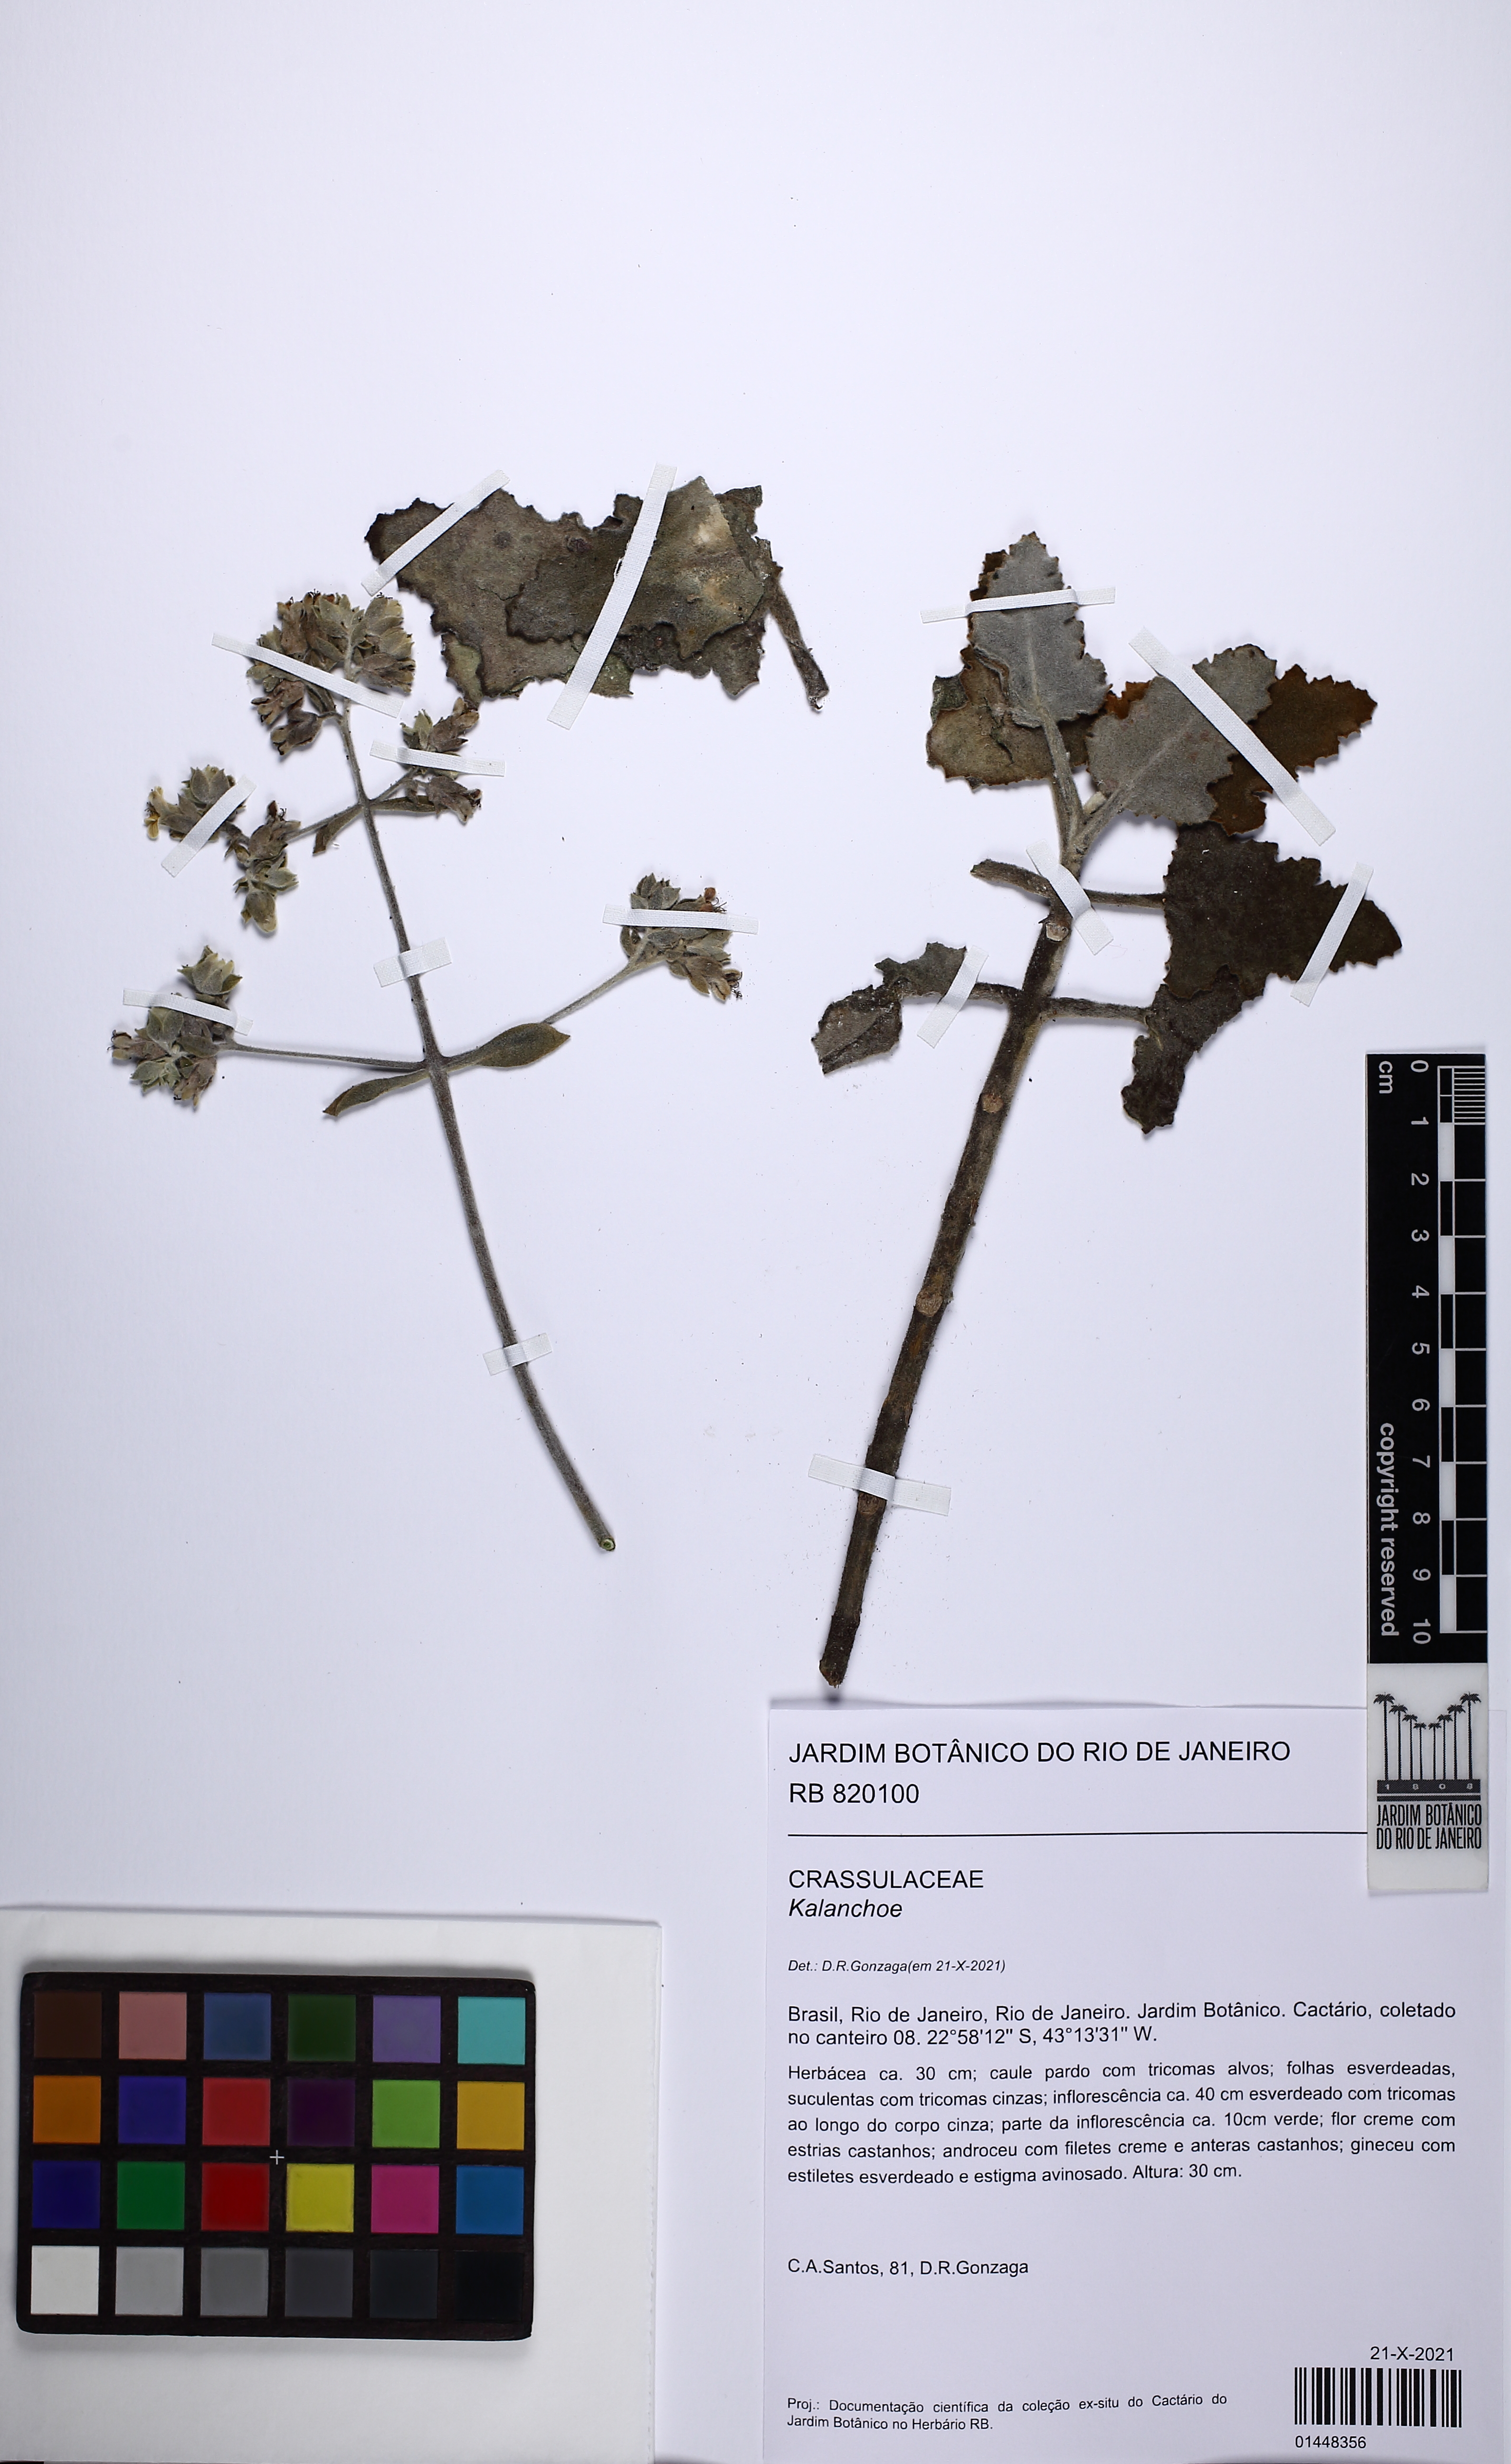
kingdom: Plantae
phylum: Tracheophyta
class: Magnoliopsida
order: Saxifragales
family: Crassulaceae
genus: Kalanchoe
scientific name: Kalanchoe
